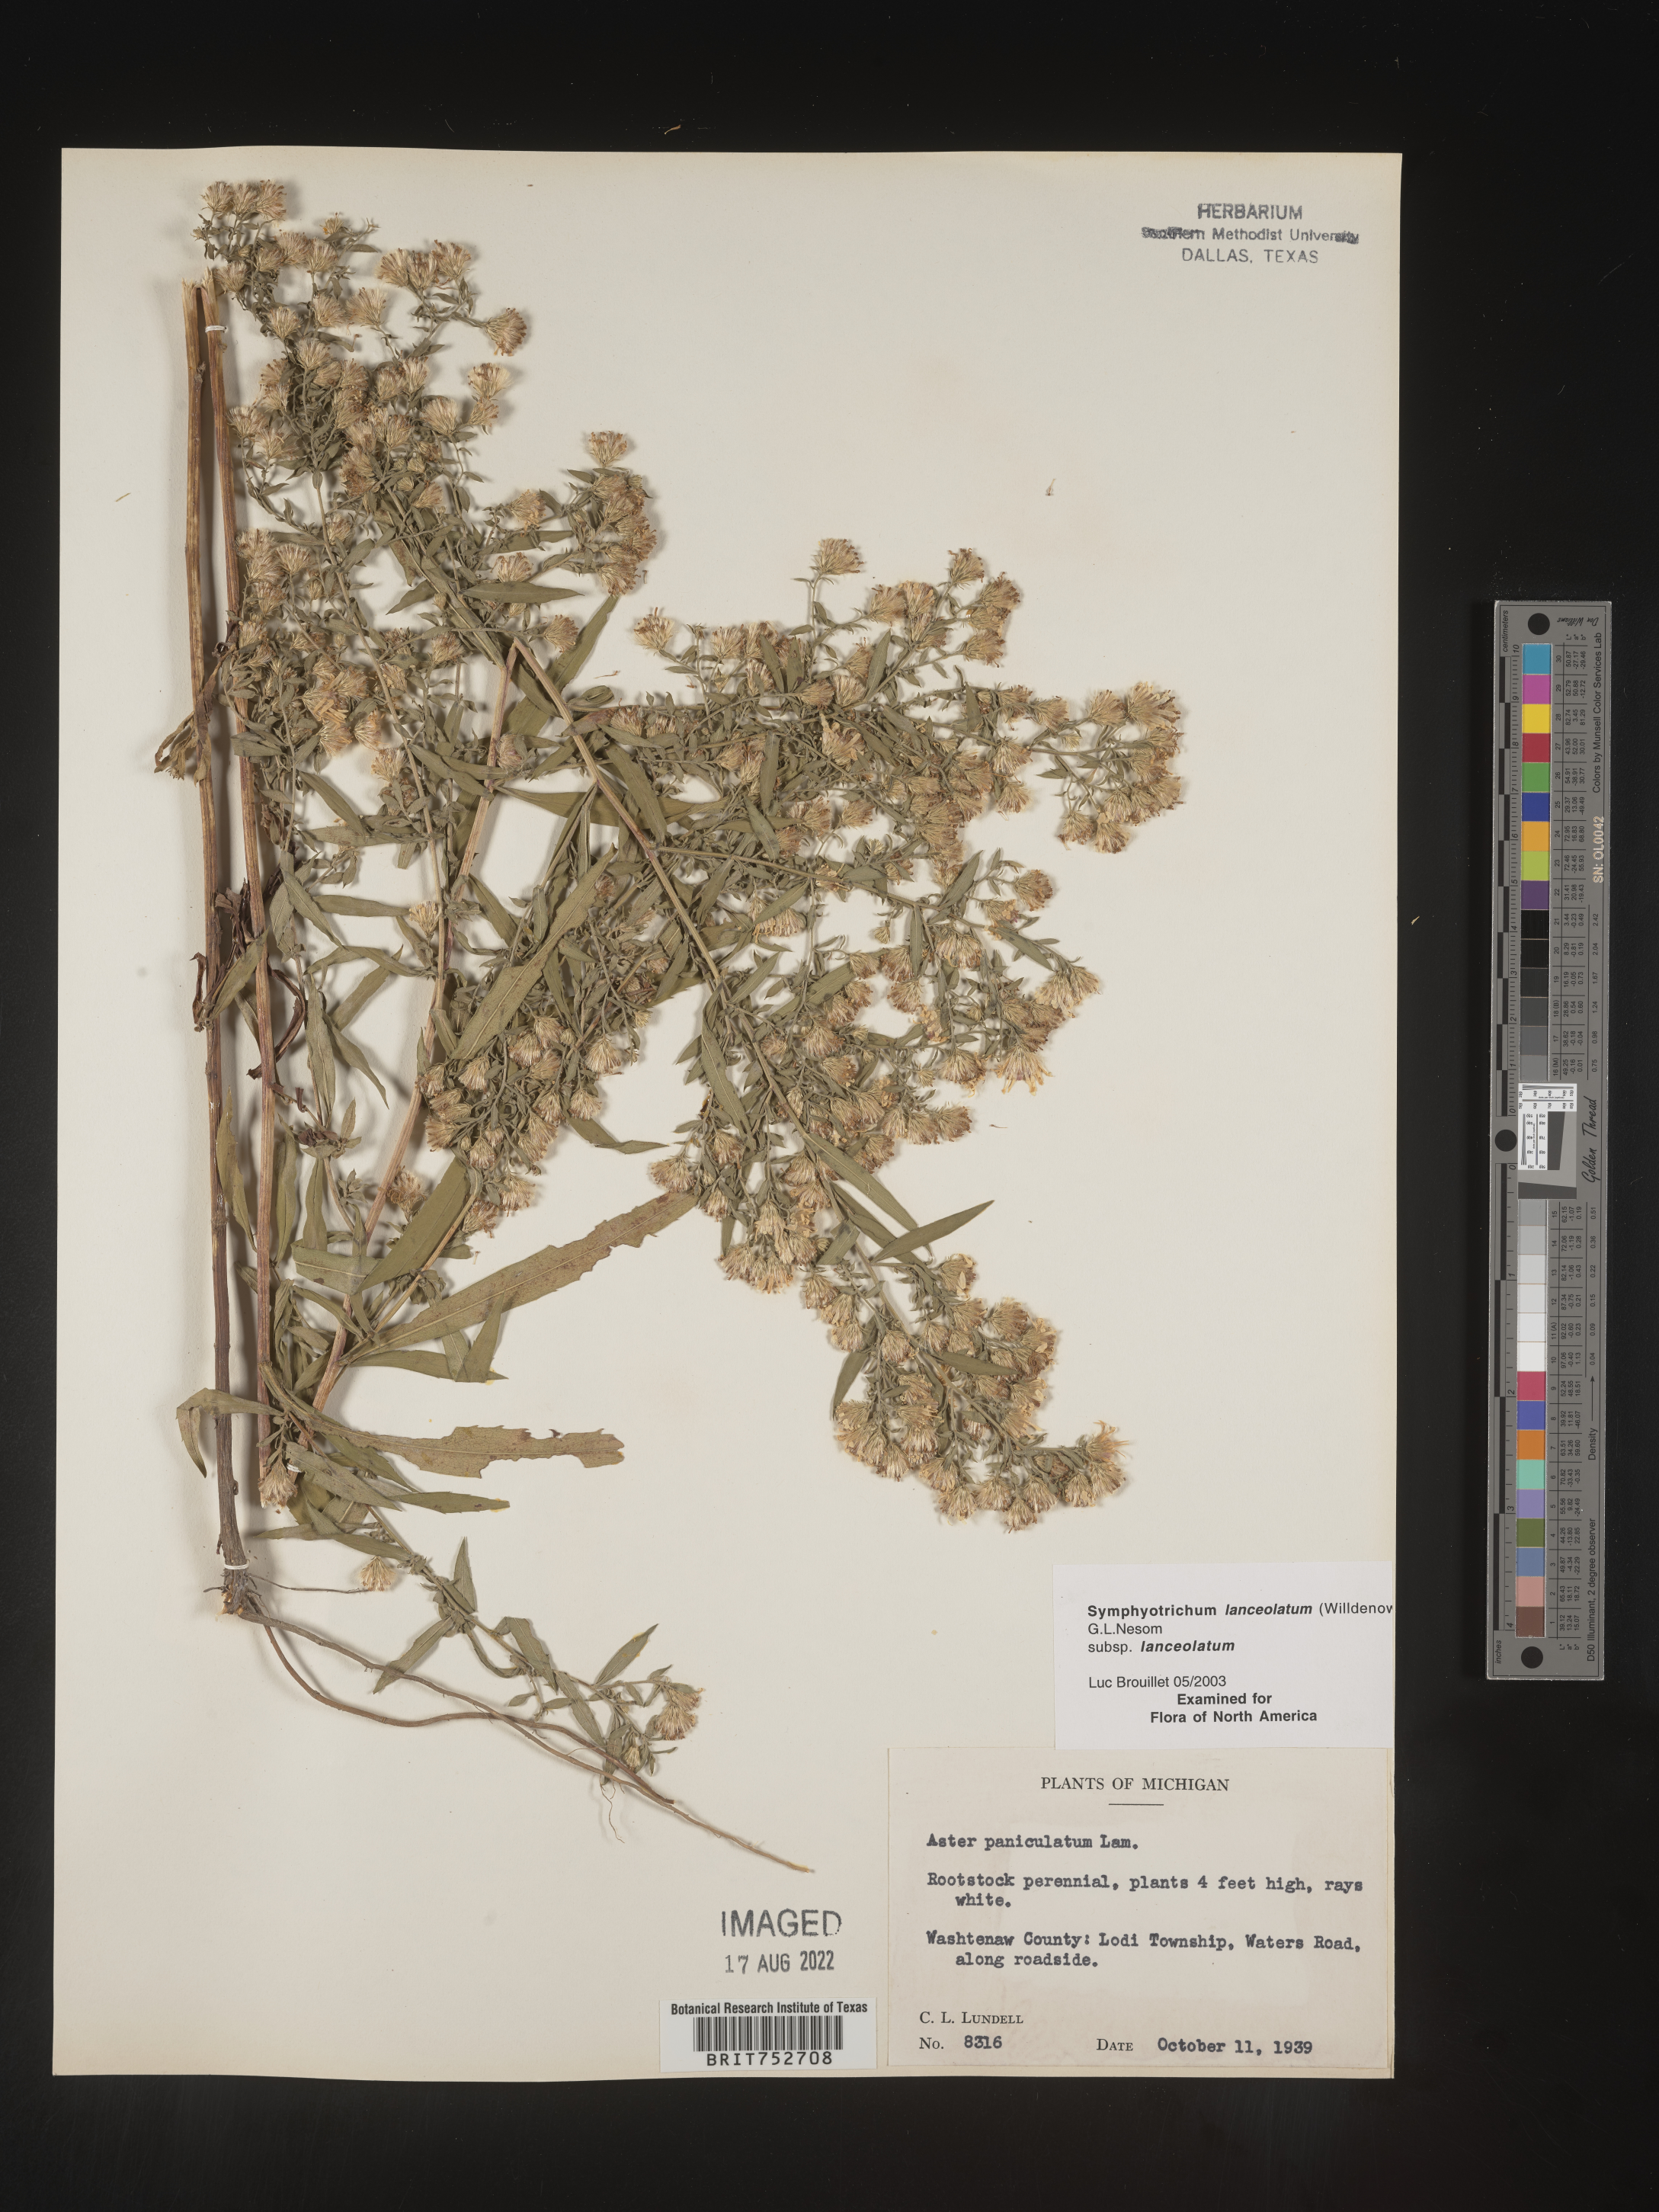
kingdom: Plantae
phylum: Tracheophyta
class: Magnoliopsida
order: Asterales
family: Asteraceae
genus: Symphyotrichum
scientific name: Symphyotrichum lanceolatum
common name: Panicled aster
